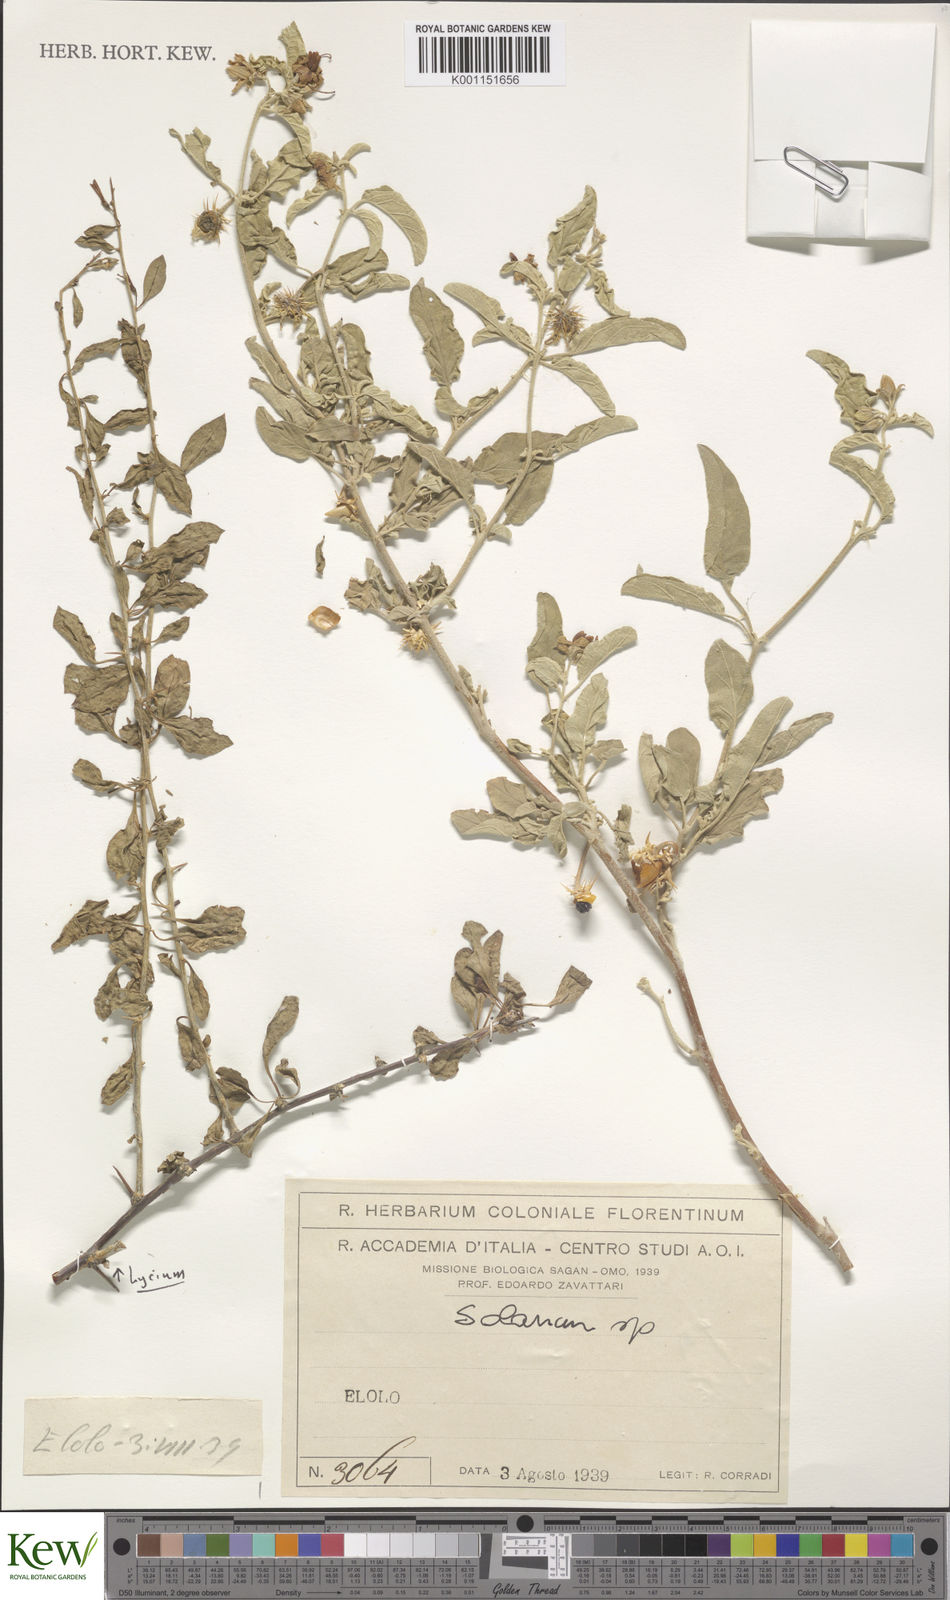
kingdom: Plantae
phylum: Tracheophyta
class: Magnoliopsida
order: Solanales
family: Solanaceae
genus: Solanum
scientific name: Solanum
